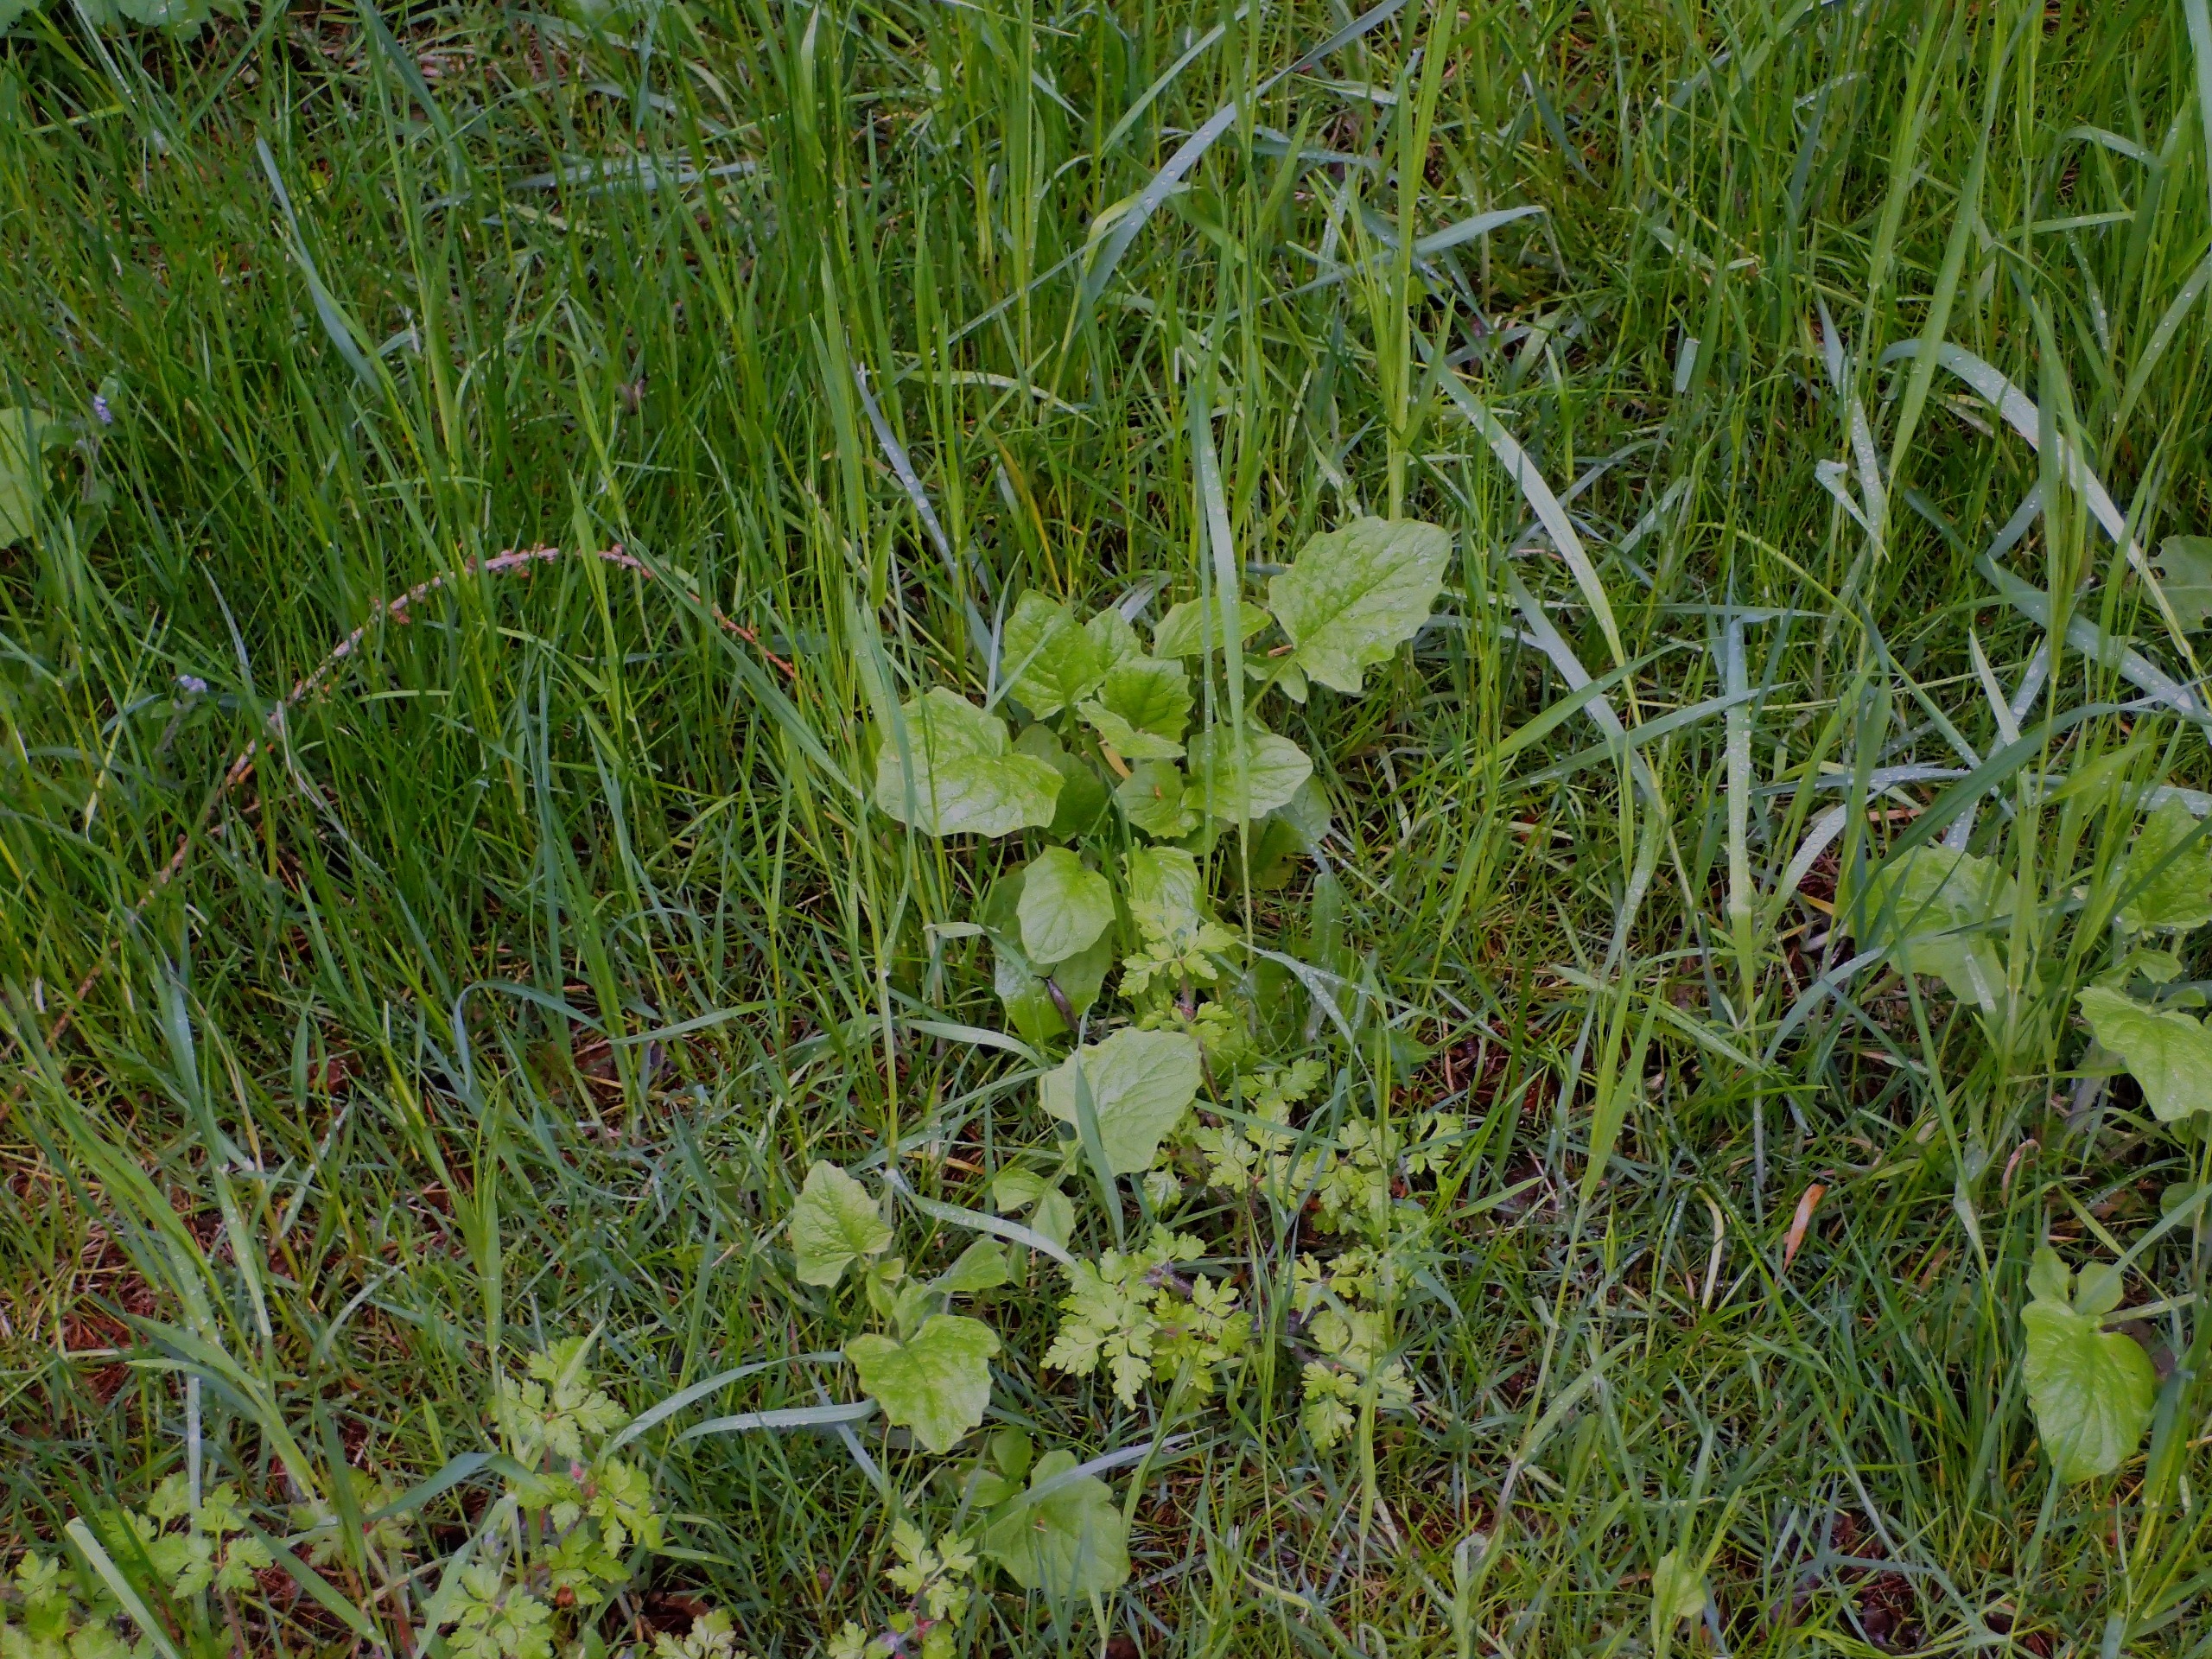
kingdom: Plantae
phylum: Tracheophyta
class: Magnoliopsida
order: Asterales
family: Asteraceae
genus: Lapsana
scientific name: Lapsana communis
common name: Haremad
